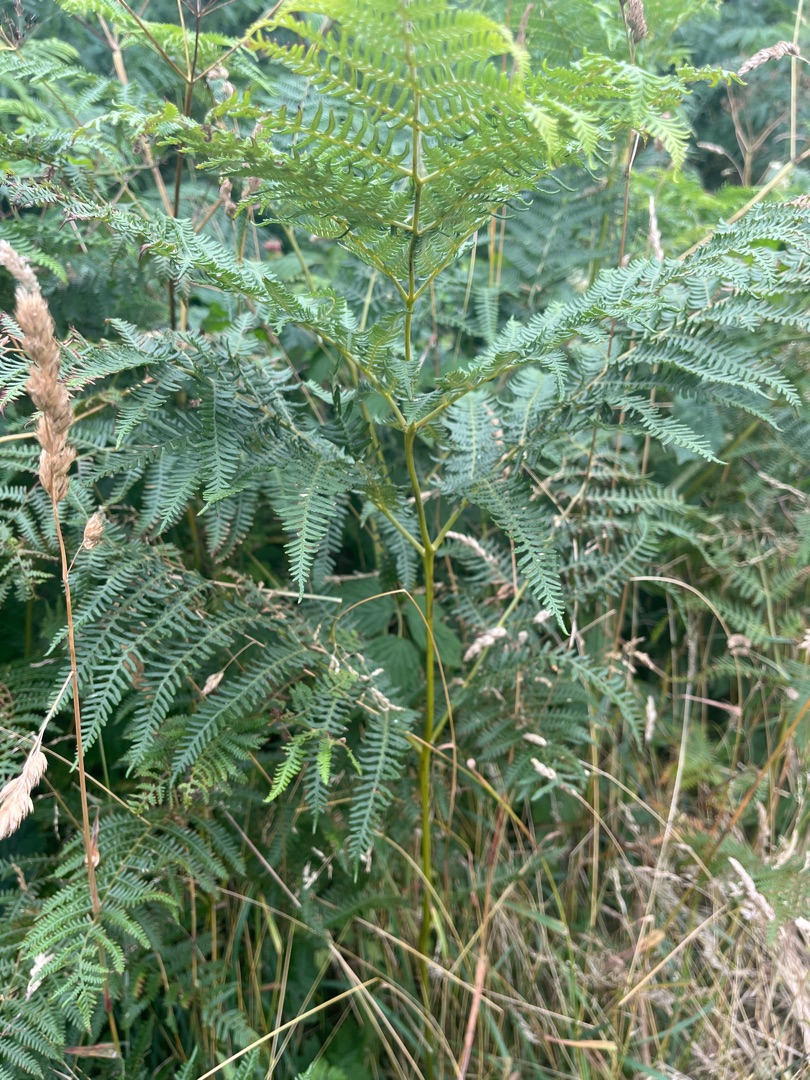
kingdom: Plantae
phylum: Tracheophyta
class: Polypodiopsida
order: Polypodiales
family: Dennstaedtiaceae
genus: Pteridium
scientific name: Pteridium aquilinum
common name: Ørnebregne
